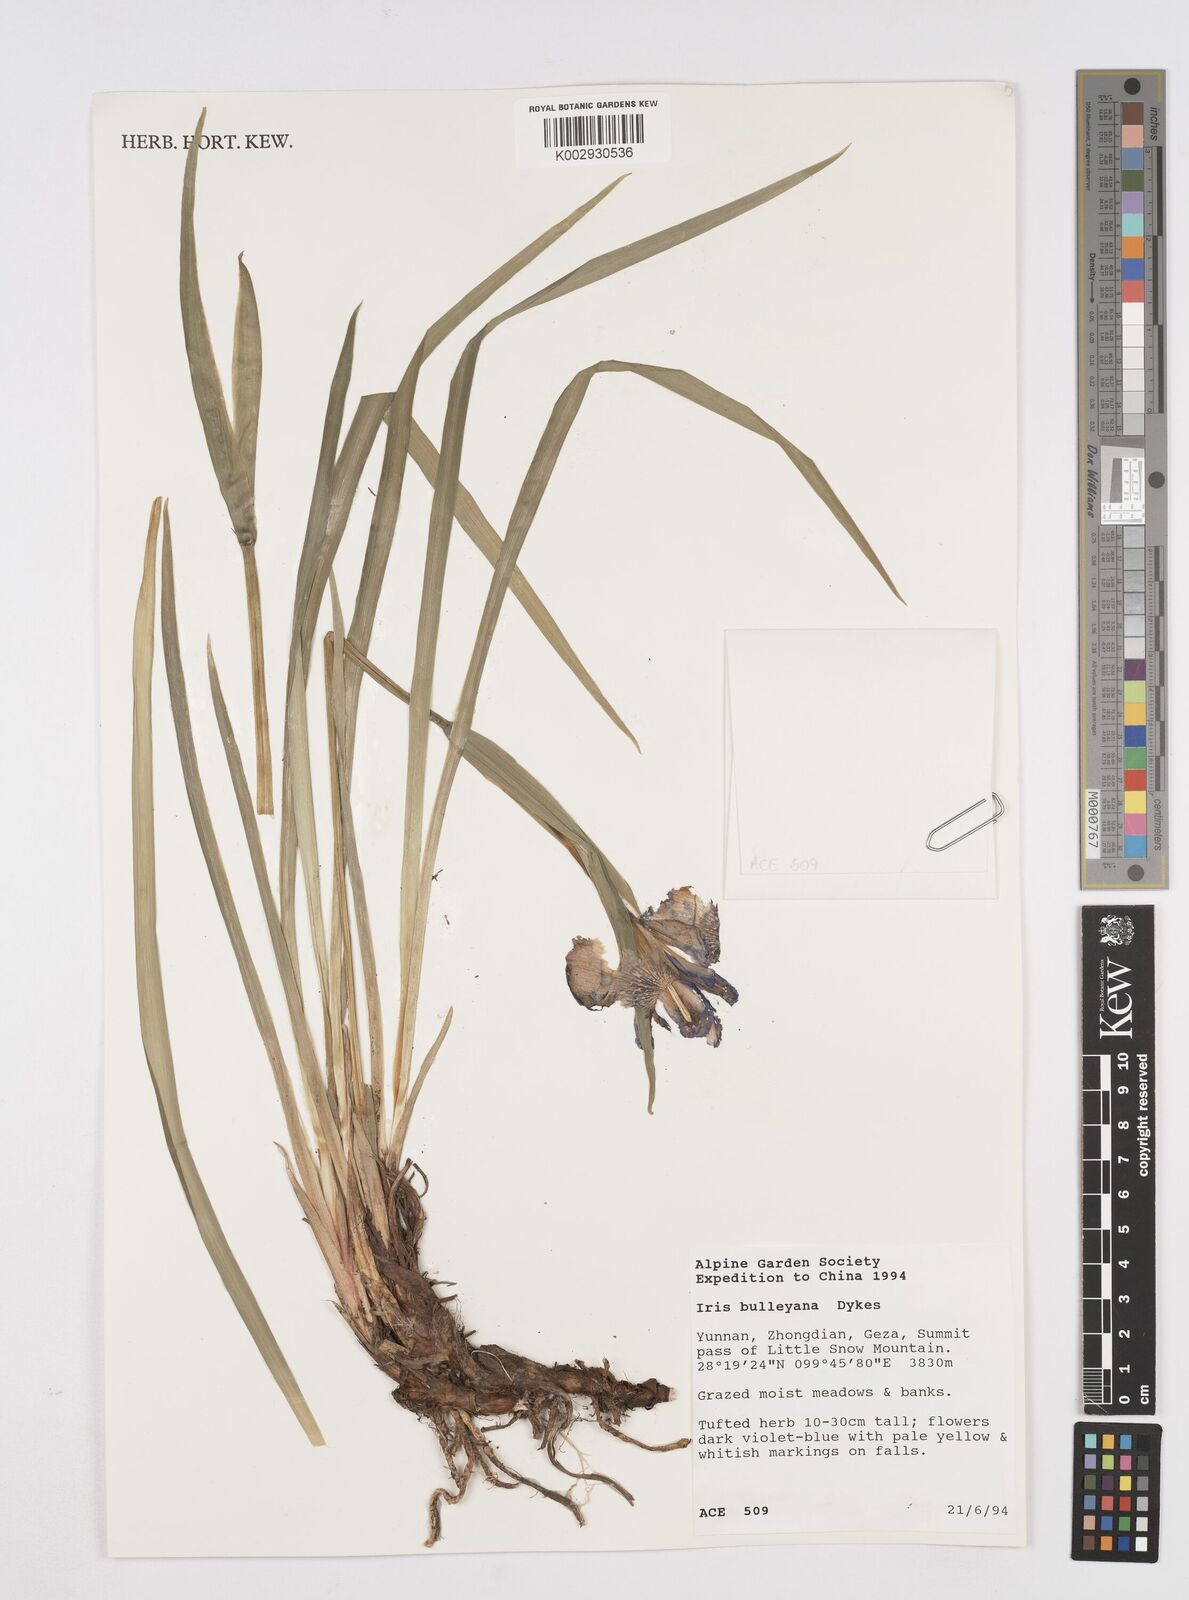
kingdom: Plantae
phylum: Tracheophyta
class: Liliopsida
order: Asparagales
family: Iridaceae
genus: Iris
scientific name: Iris bulleyana
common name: Southwest iris
